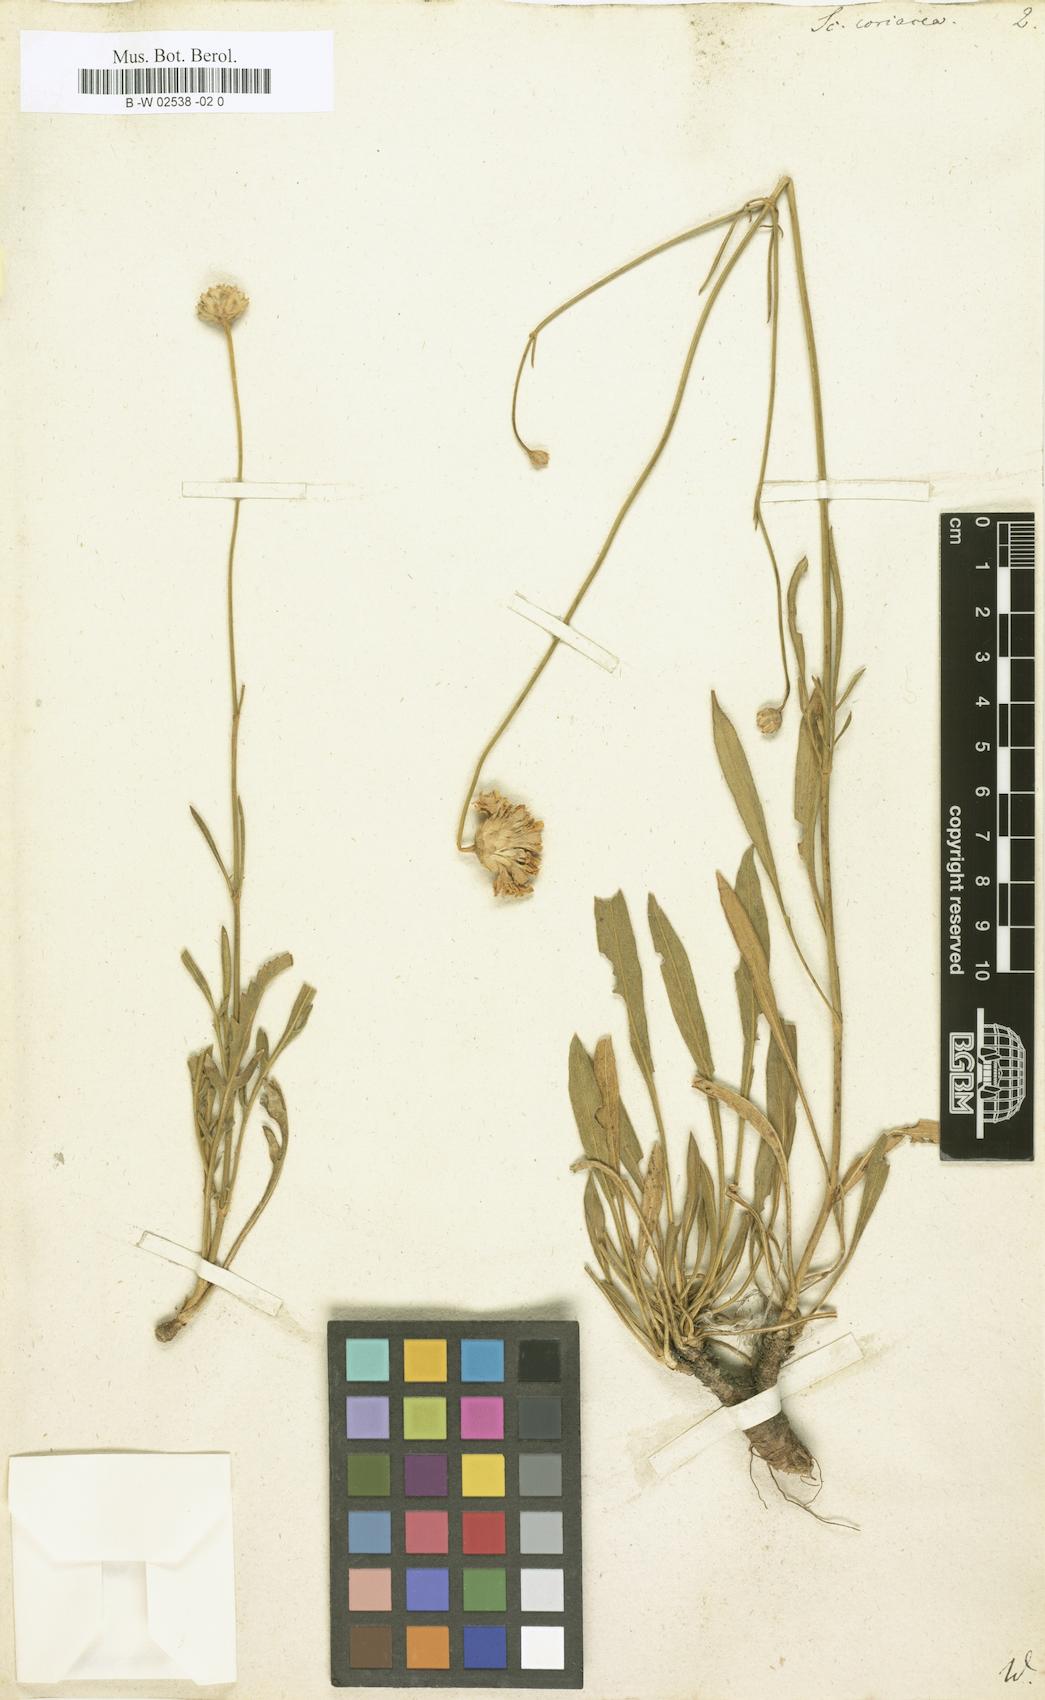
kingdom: Plantae
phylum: Tracheophyta
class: Magnoliopsida
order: Dipsacales
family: Caprifoliaceae
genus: Cephalaria
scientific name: Cephalaria coriacea
